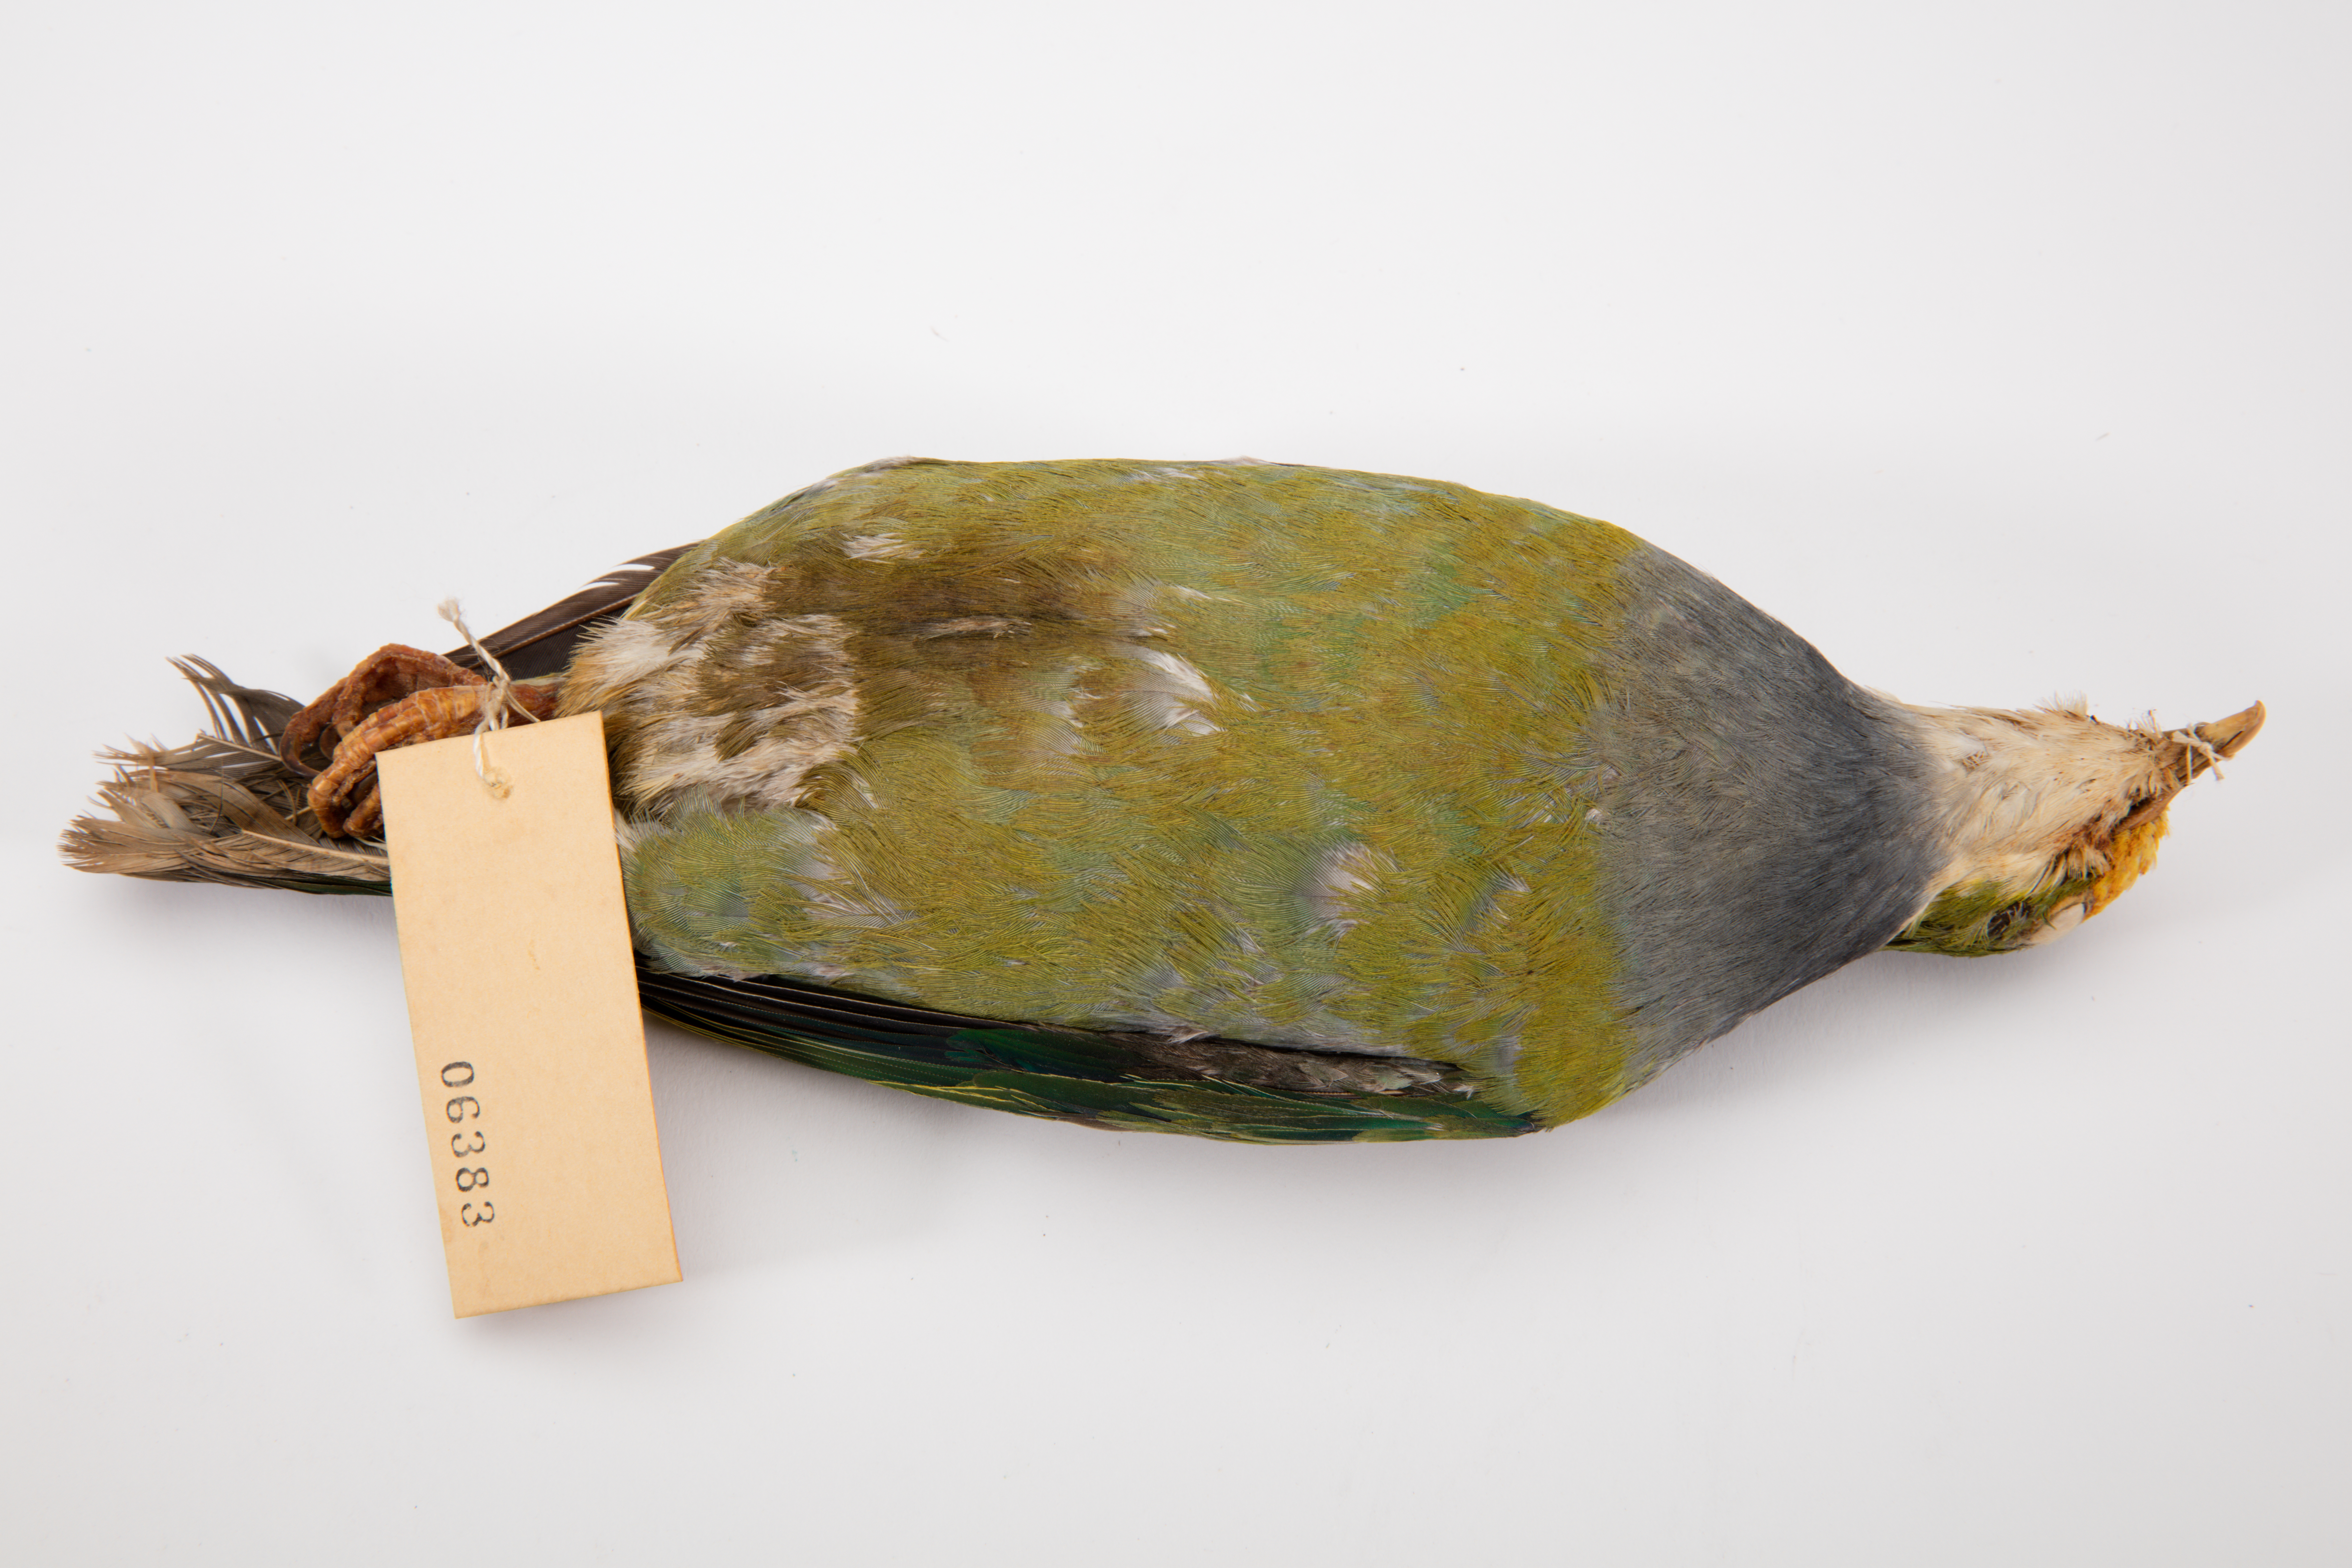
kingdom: Animalia
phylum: Chordata
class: Aves
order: Columbiformes
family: Columbidae
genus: Ptilinopus
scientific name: Ptilinopus
